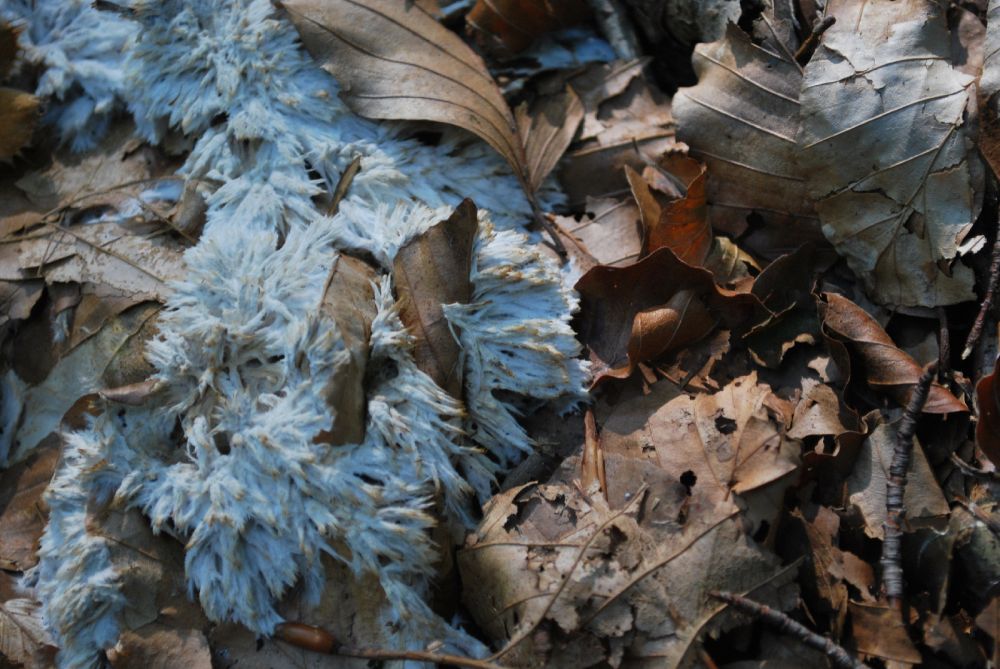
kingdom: Fungi
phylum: Basidiomycota
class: Agaricomycetes
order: Thelephorales
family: Thelephoraceae
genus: Thelephora
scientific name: Thelephora penicillata
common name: fladtrådt frynsesvamp
